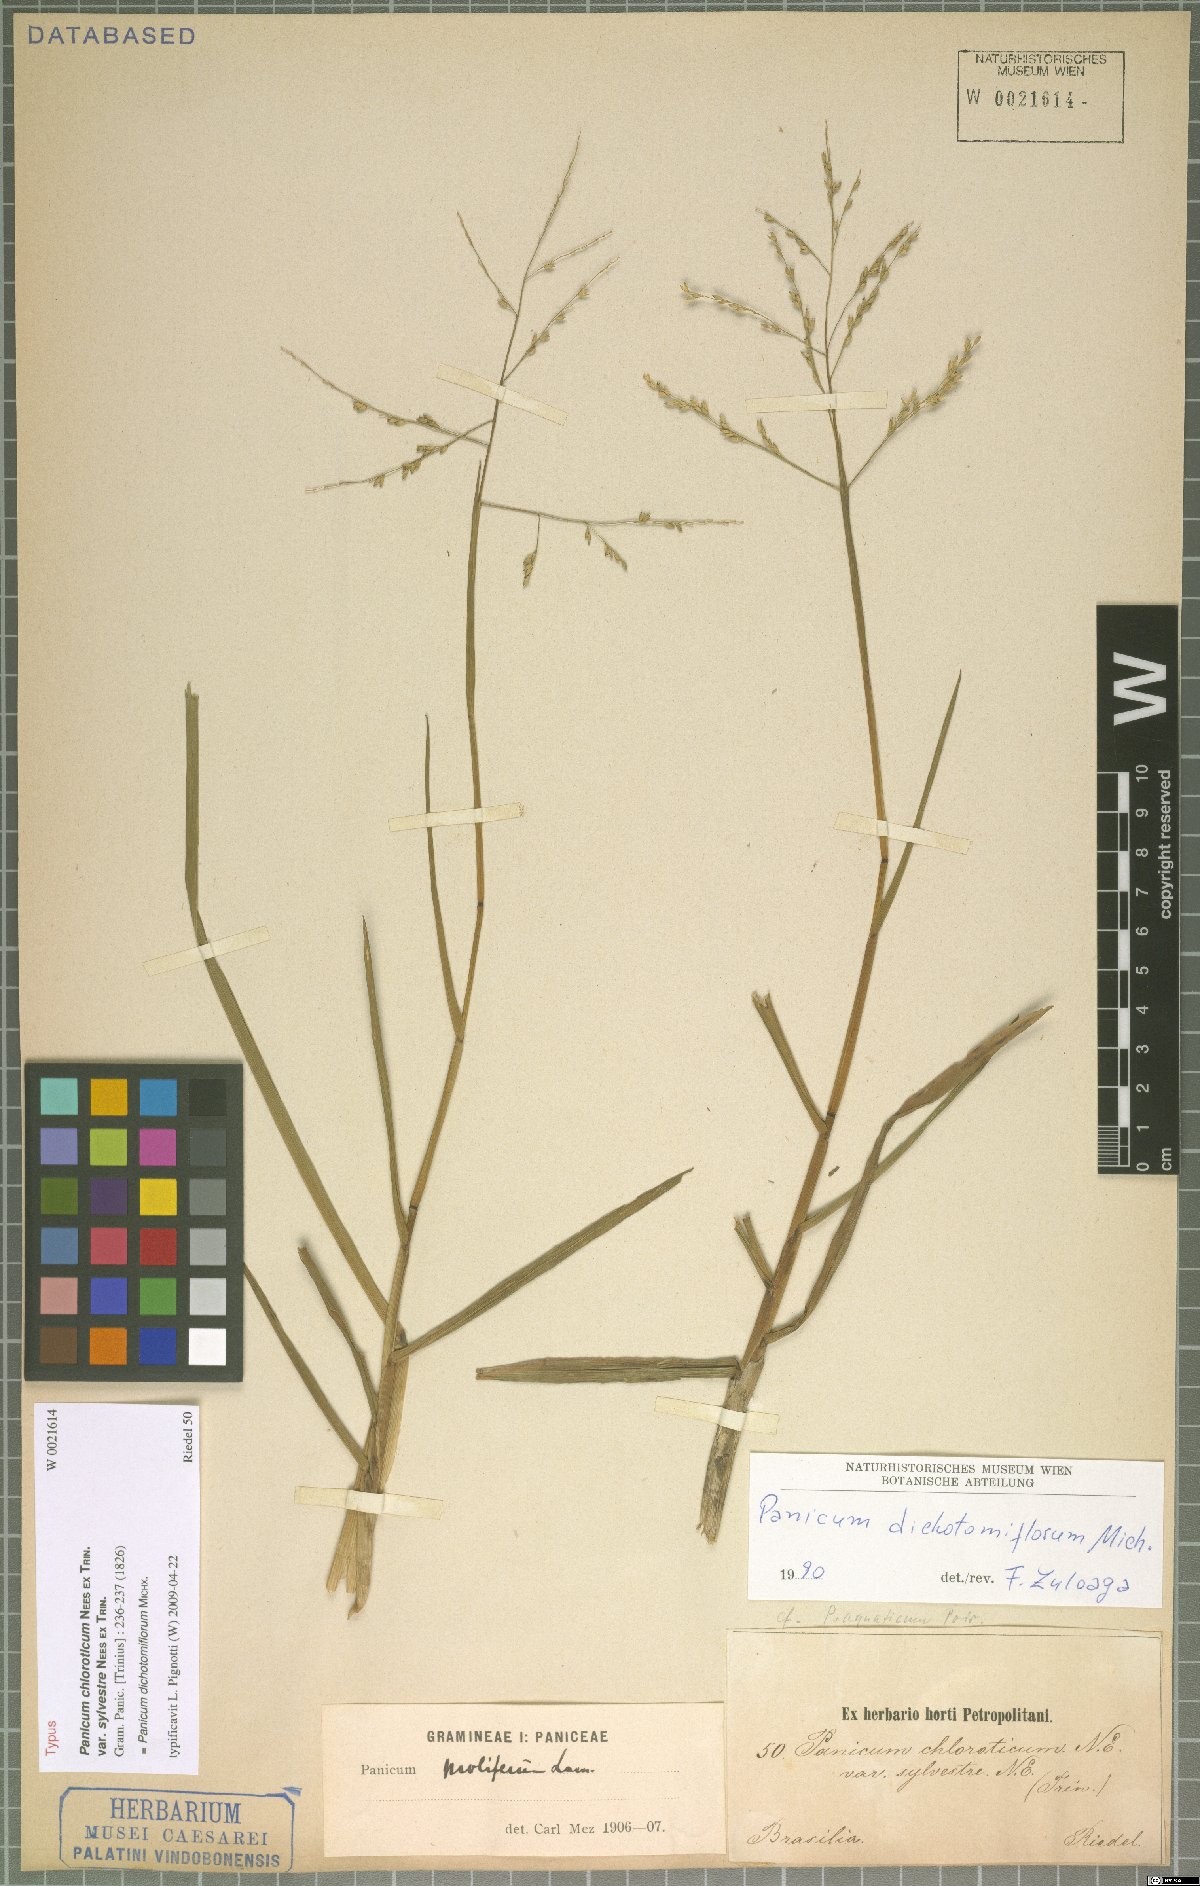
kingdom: Plantae
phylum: Tracheophyta
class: Liliopsida
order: Poales
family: Poaceae
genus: Panicum
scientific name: Panicum dichotomiflorum
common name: Autumn millet
